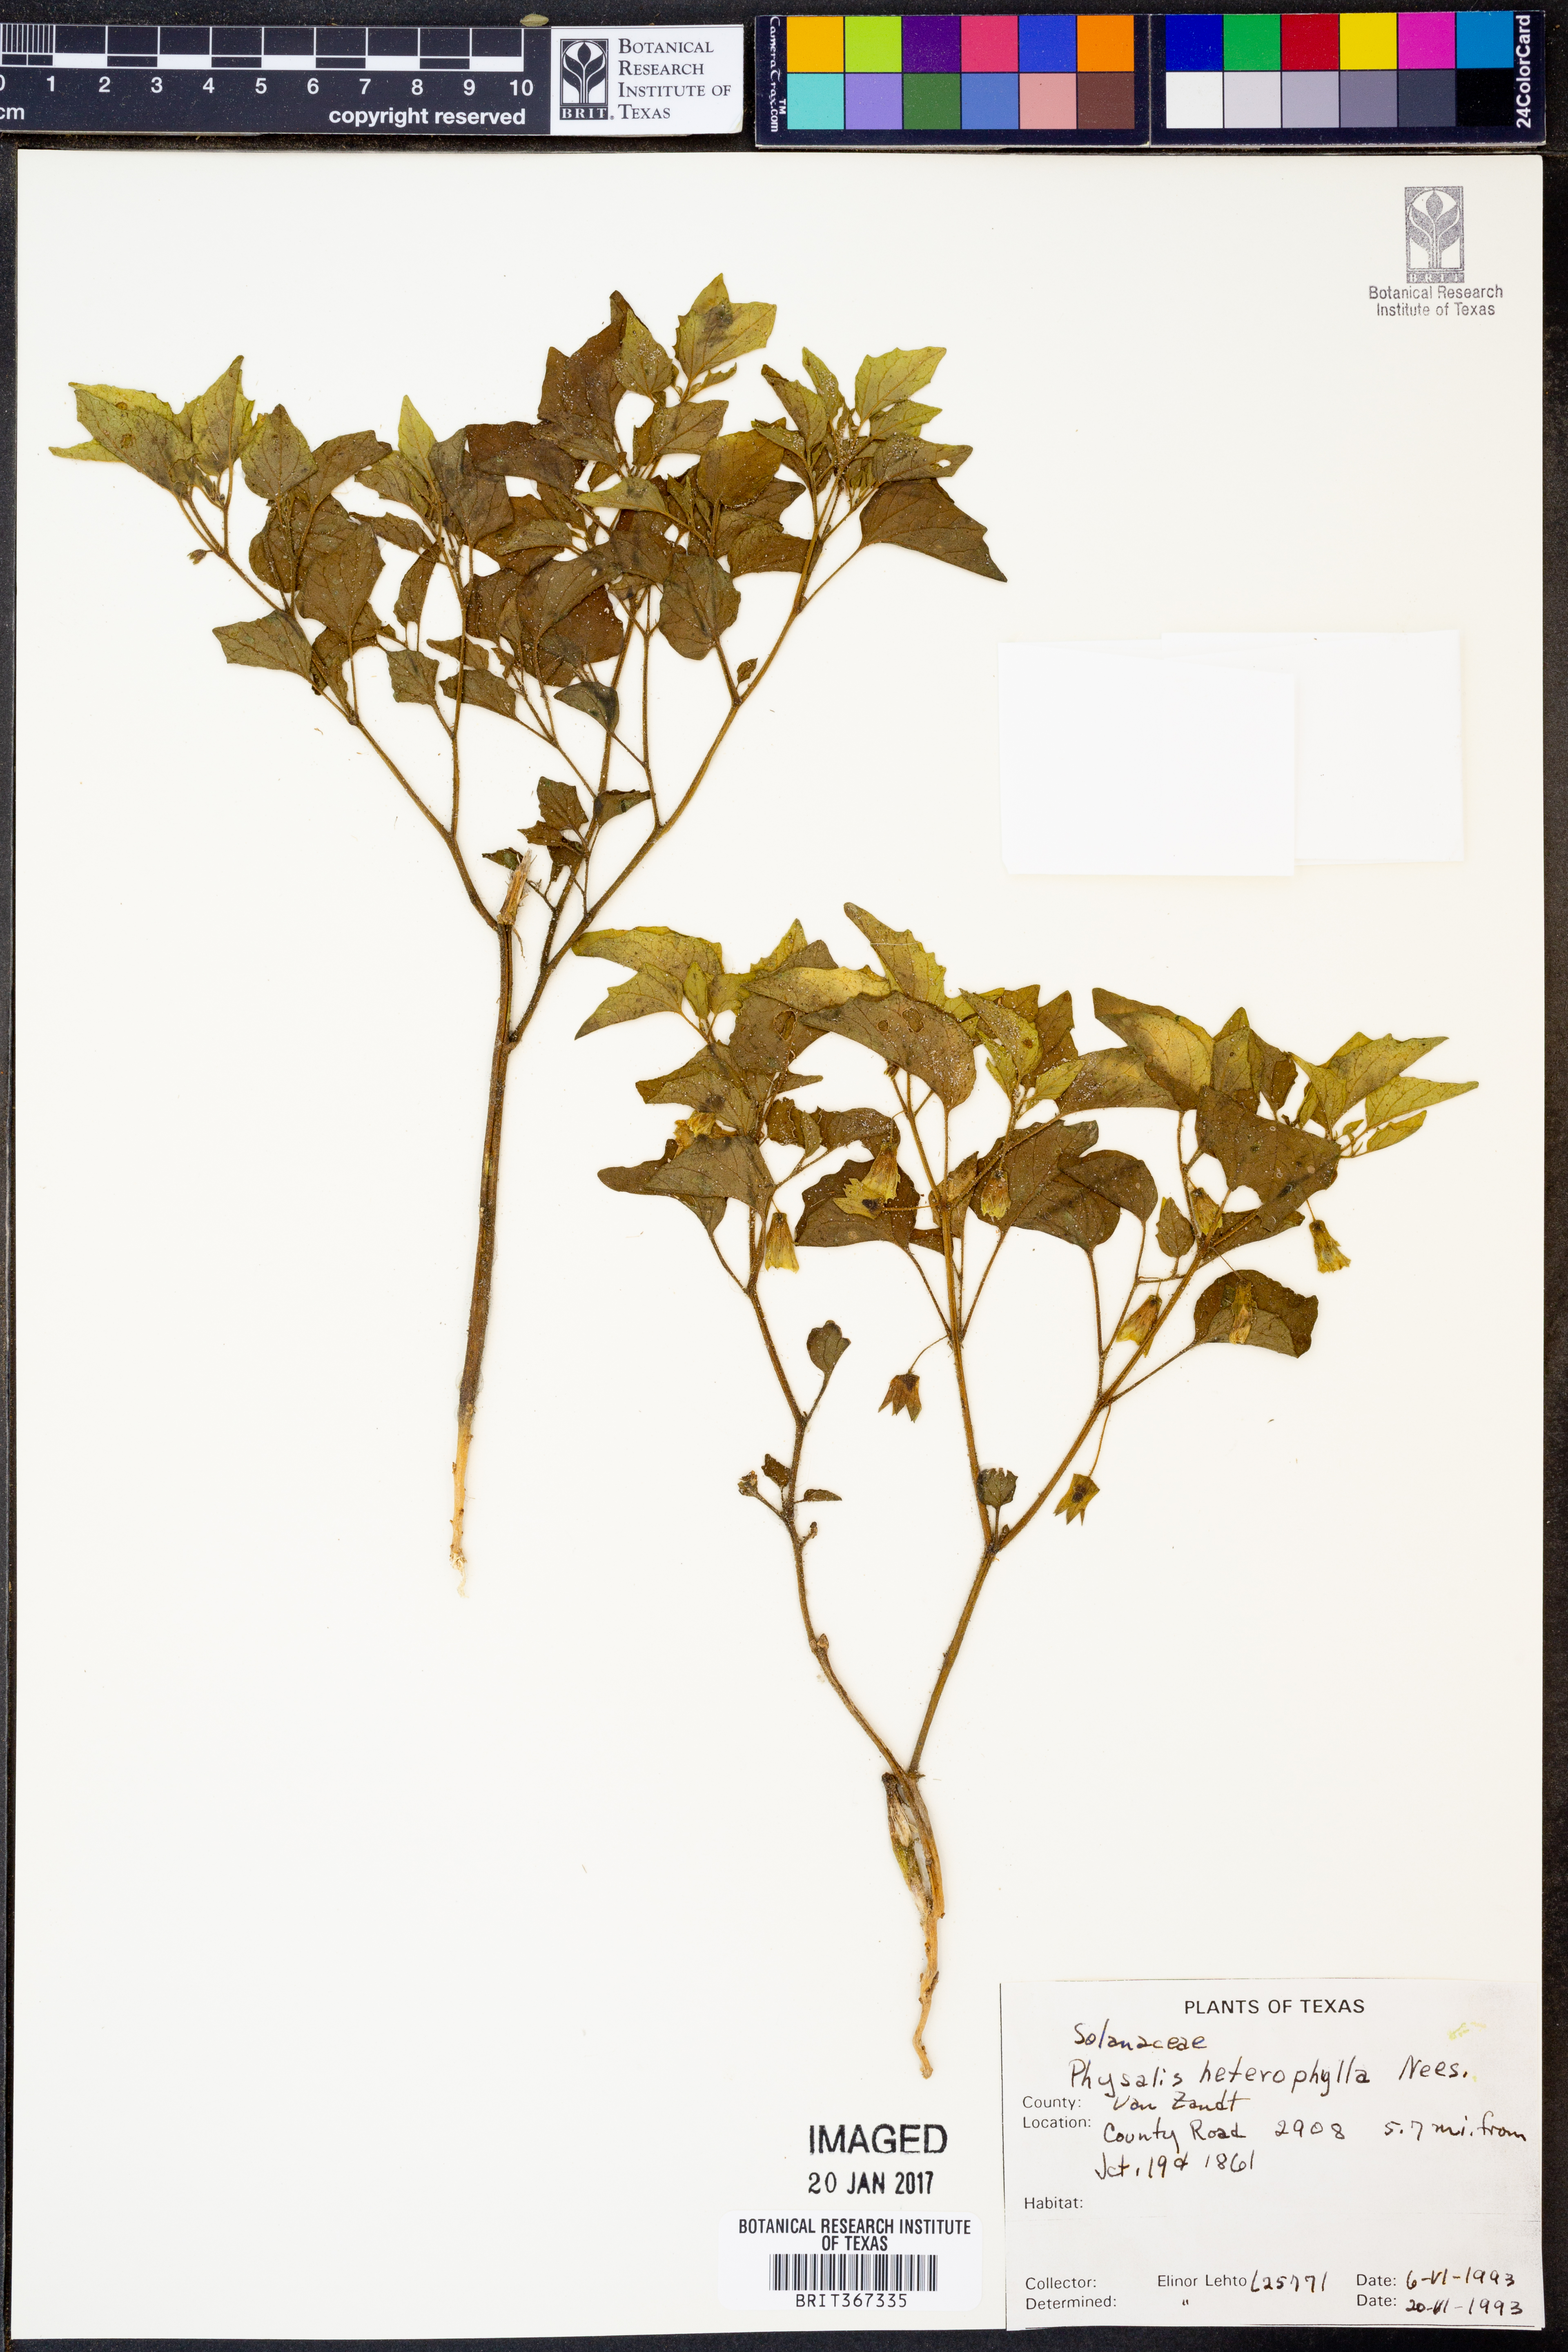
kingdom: Plantae
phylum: Tracheophyta
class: Magnoliopsida
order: Solanales
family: Solanaceae
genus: Physalis
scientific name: Physalis macrosperma
